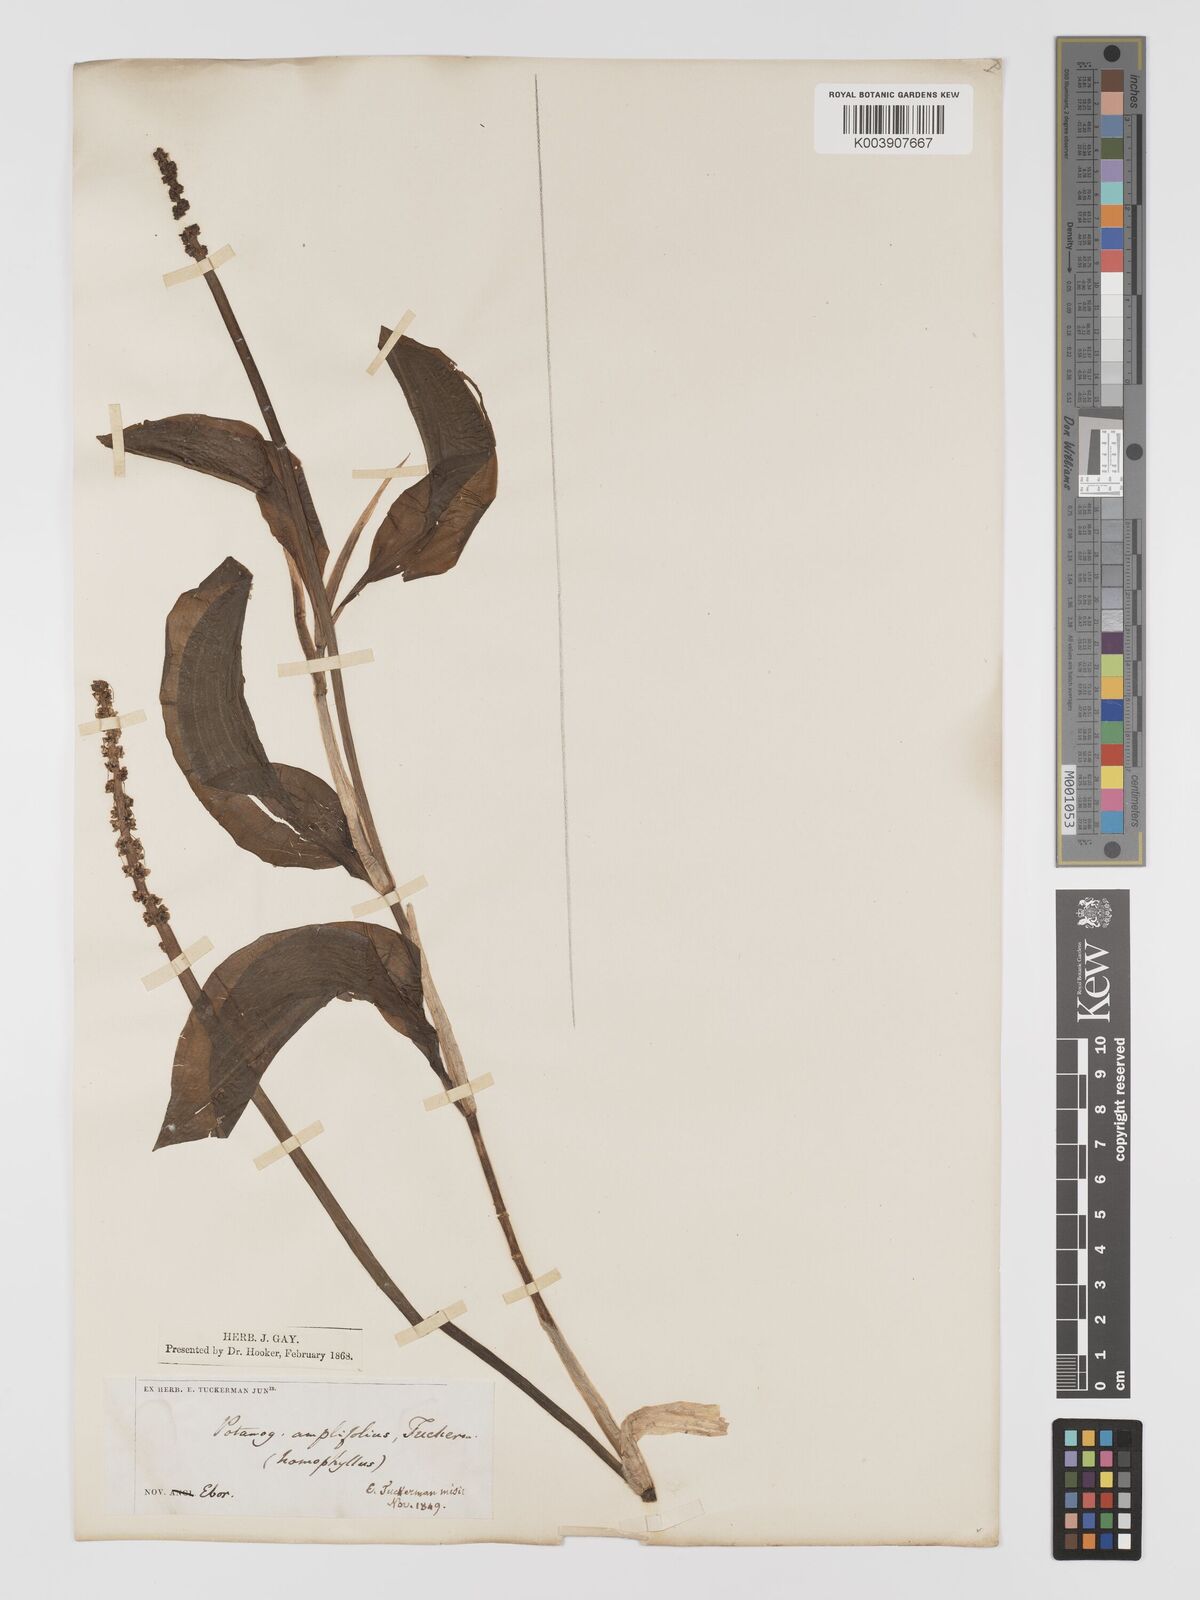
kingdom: Plantae
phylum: Tracheophyta
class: Liliopsida
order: Alismatales
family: Potamogetonaceae
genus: Potamogeton
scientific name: Potamogeton amplifolius
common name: Broad-leaved pondweed
